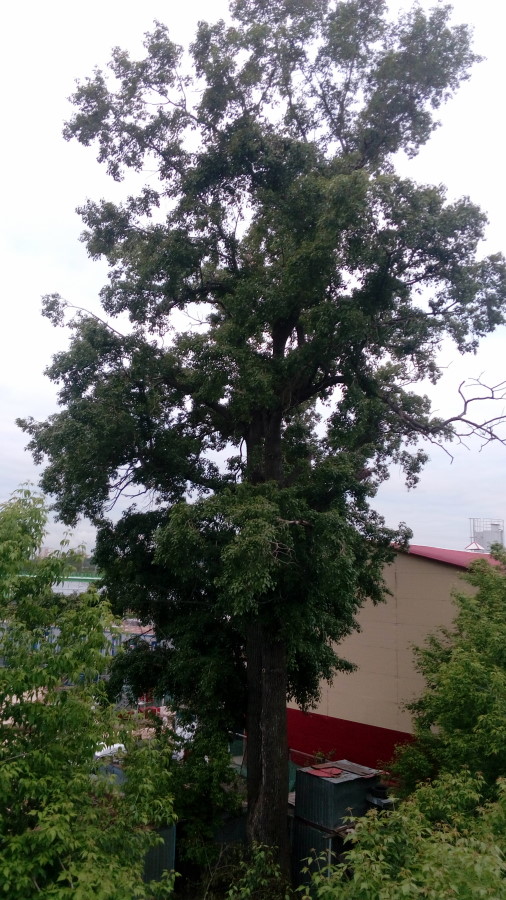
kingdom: Plantae
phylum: Tracheophyta
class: Magnoliopsida
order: Malpighiales
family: Salicaceae
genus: Populus
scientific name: Populus
